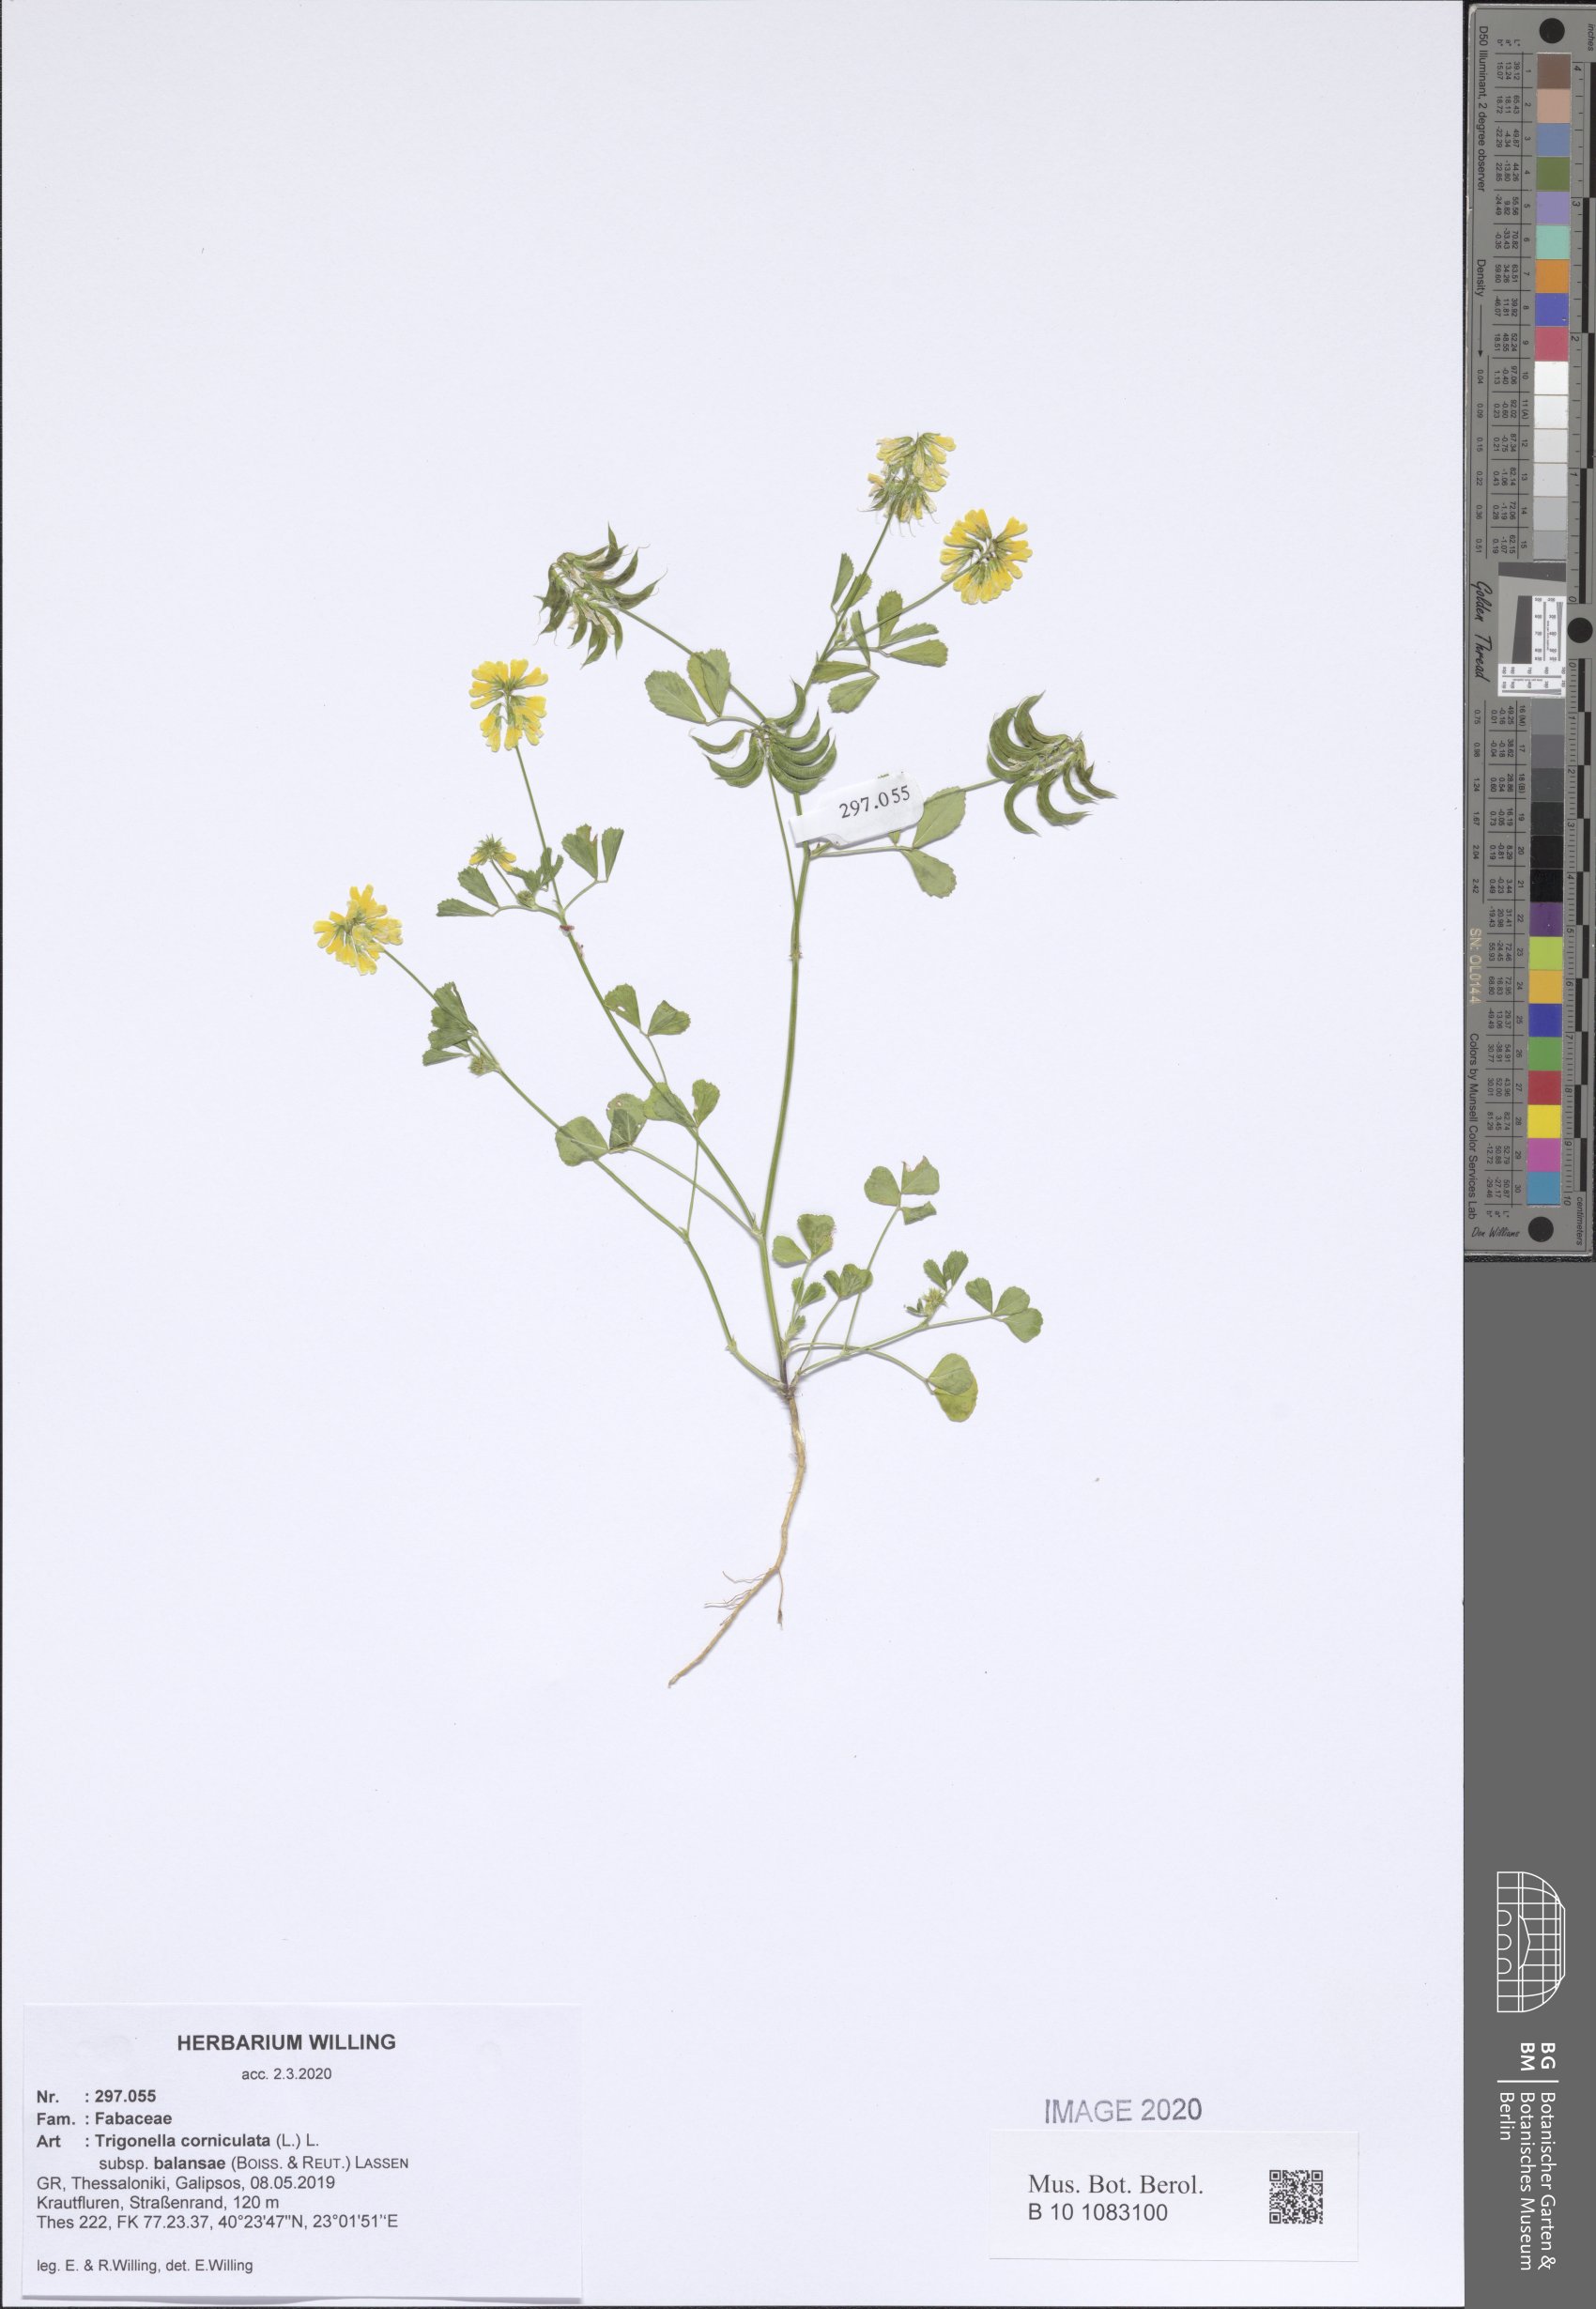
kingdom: Plantae
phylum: Tracheophyta
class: Magnoliopsida
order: Fabales
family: Fabaceae
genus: Trigonella
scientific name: Trigonella balansae
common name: Sickle-fruited fenugreek
